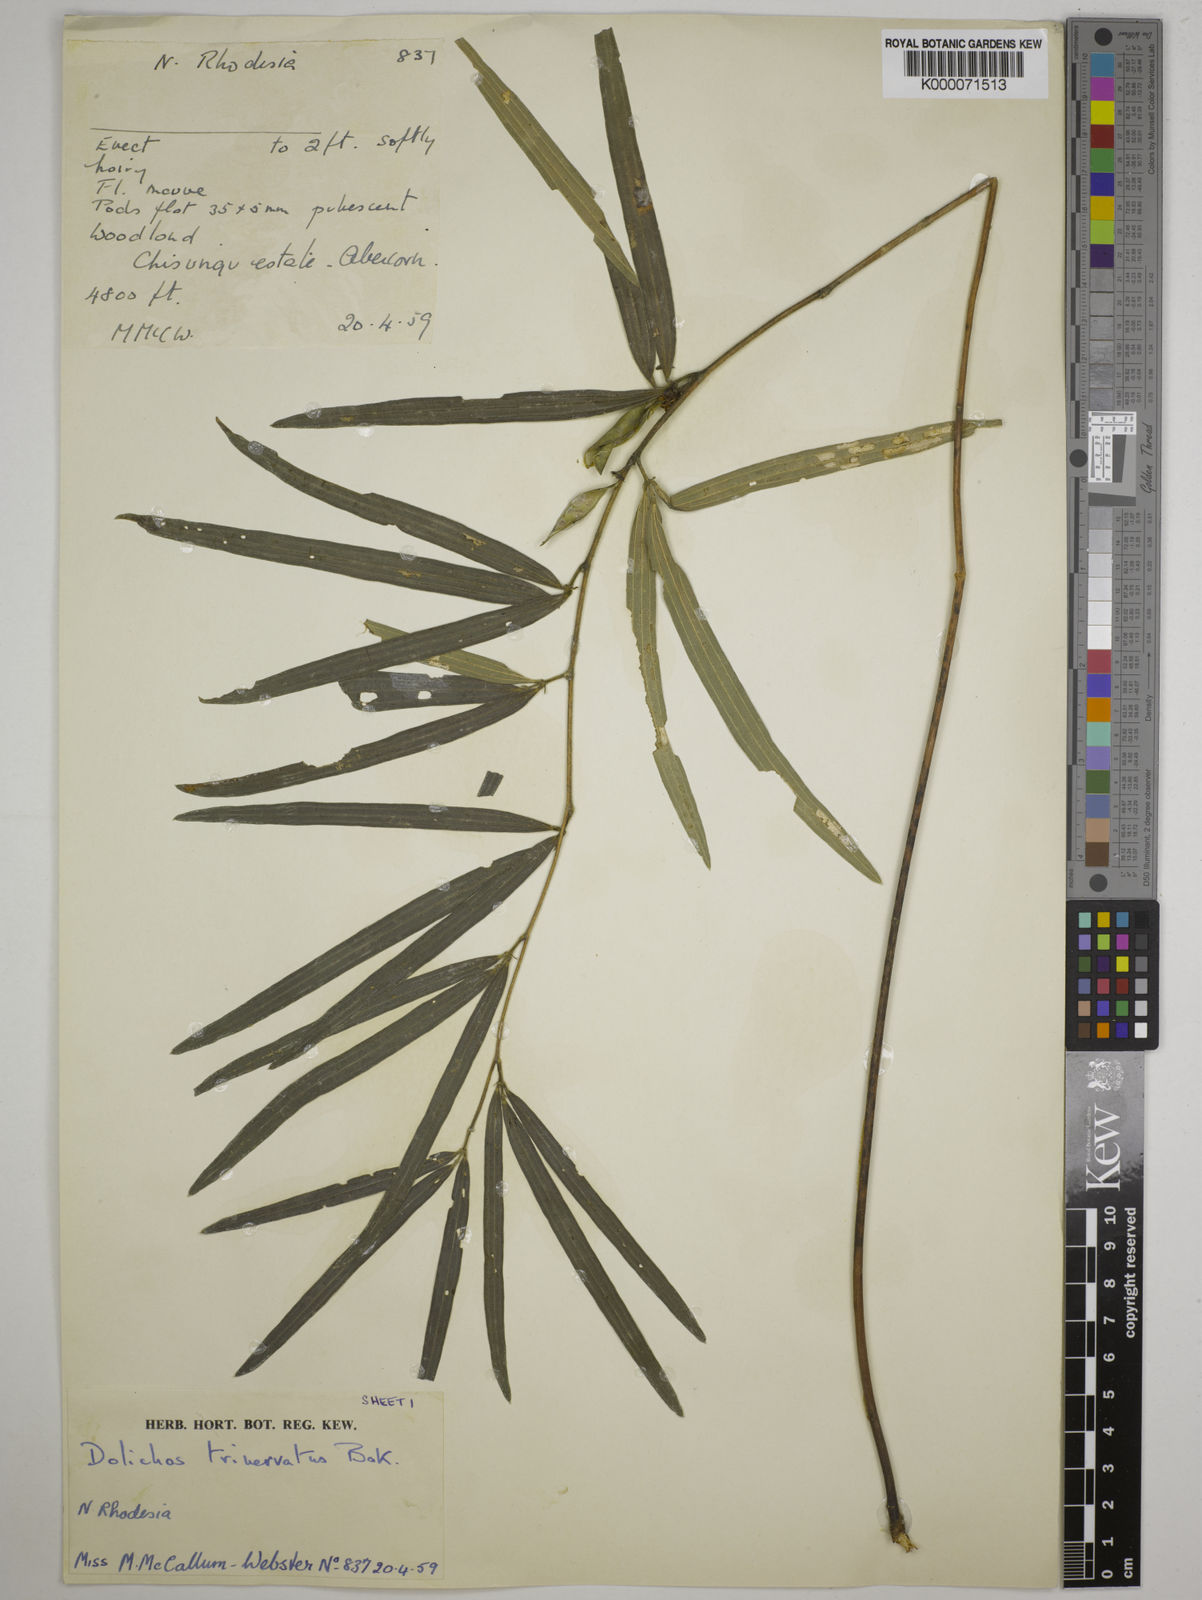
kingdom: Plantae
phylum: Tracheophyta
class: Magnoliopsida
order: Fabales
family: Fabaceae
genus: Dolichos
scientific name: Dolichos trinervatus
